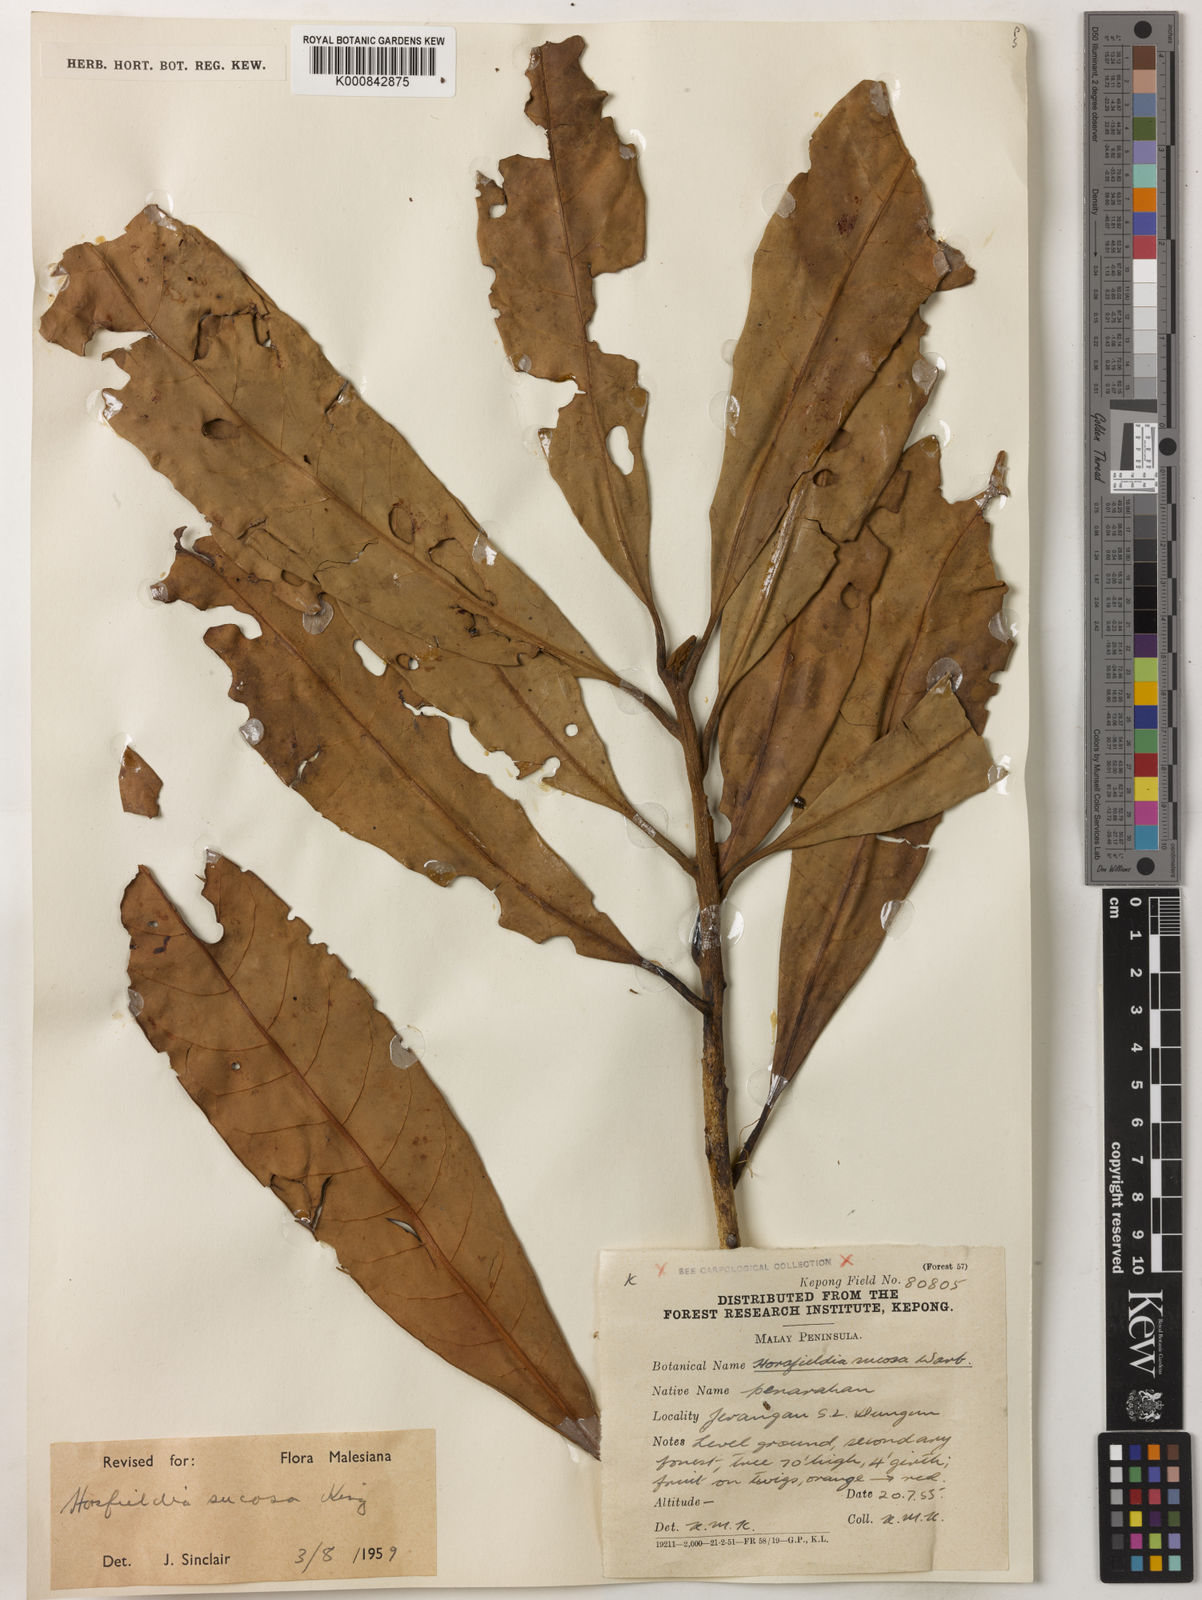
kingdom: Plantae
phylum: Tracheophyta
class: Magnoliopsida
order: Magnoliales
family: Myristicaceae
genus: Horsfieldia
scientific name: Horsfieldia sucosa
